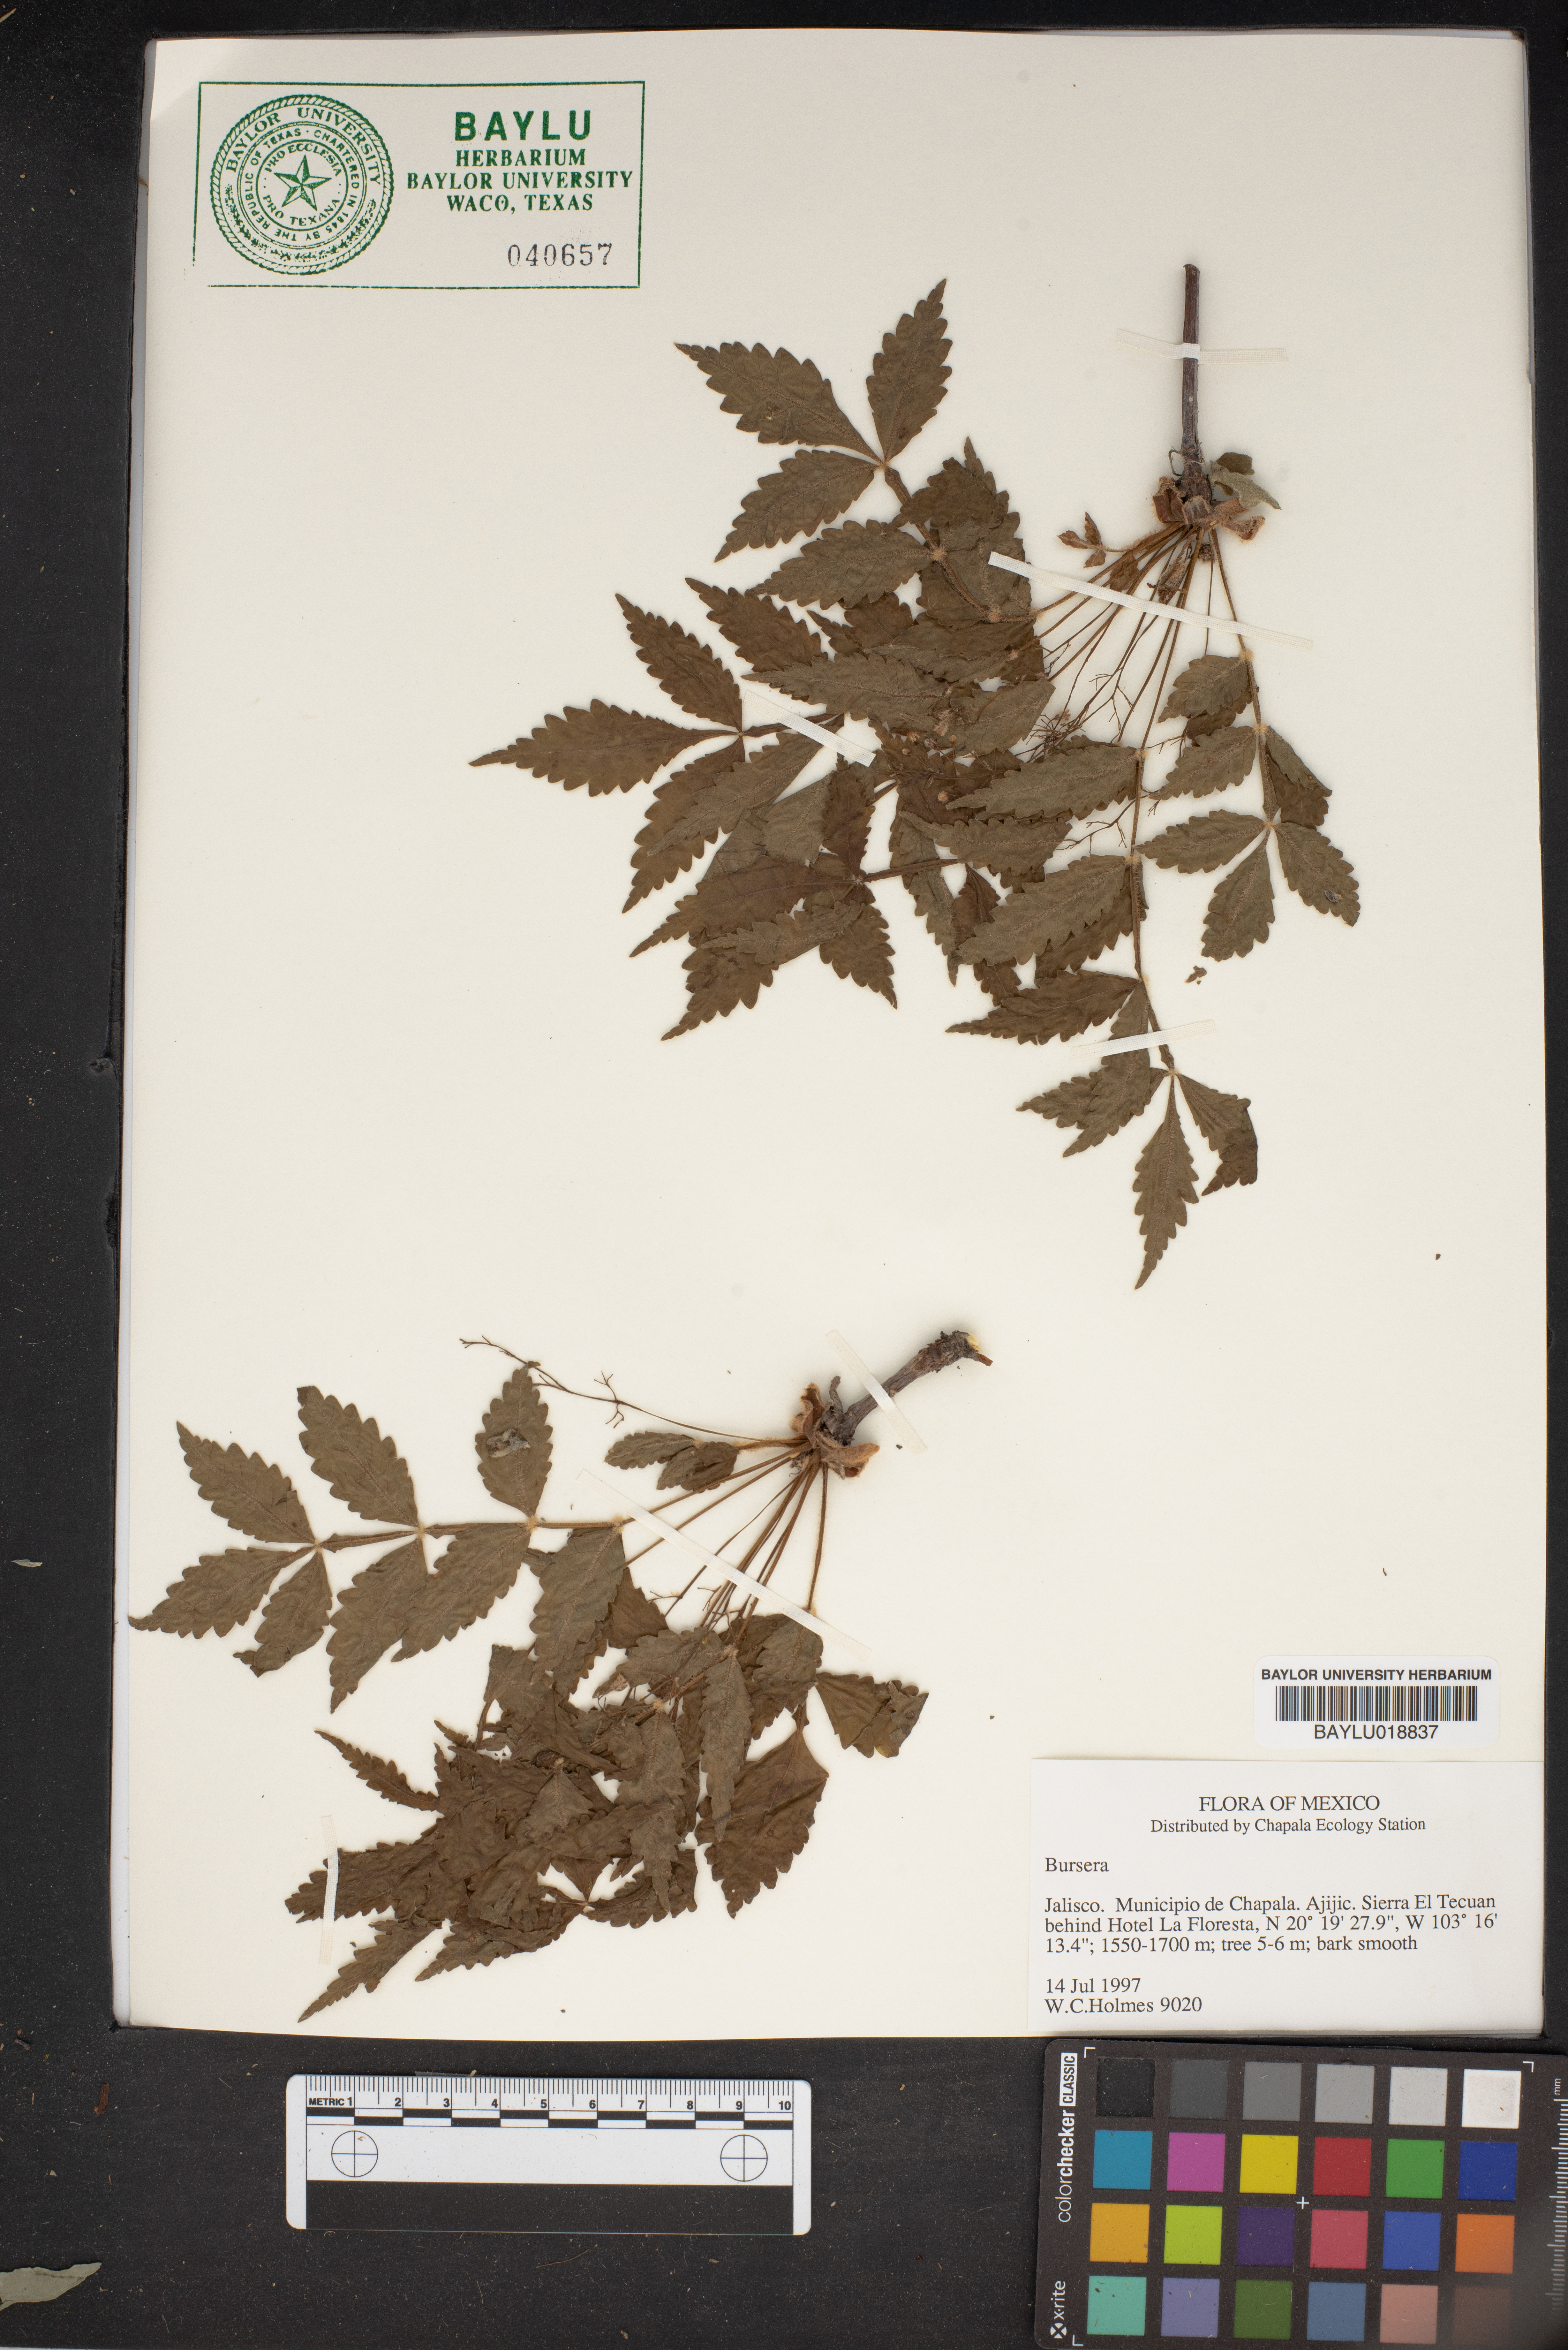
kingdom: Plantae
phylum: Tracheophyta
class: Magnoliopsida
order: Sapindales
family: Burseraceae
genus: Bursera
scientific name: Bursera
